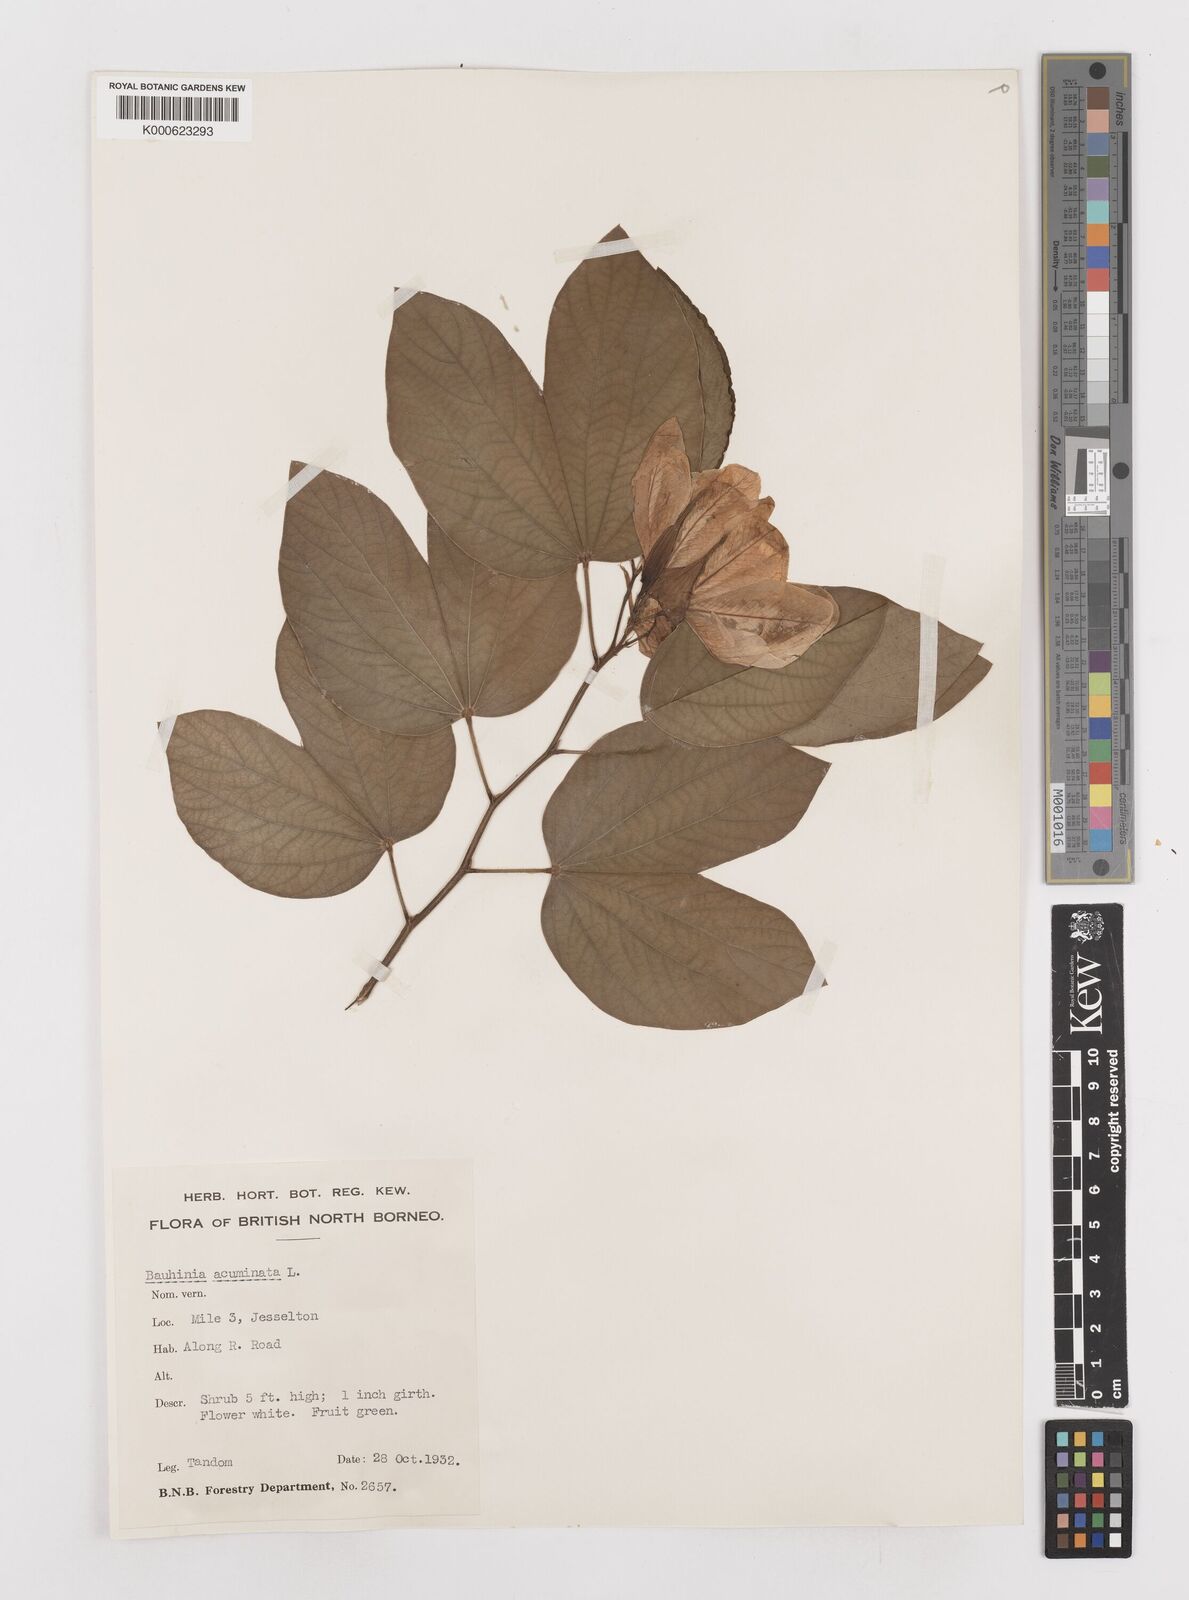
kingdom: Plantae
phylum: Tracheophyta
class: Magnoliopsida
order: Fabales
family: Fabaceae
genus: Bauhinia
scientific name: Bauhinia acuminata
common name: Dwarf white bauhinia
